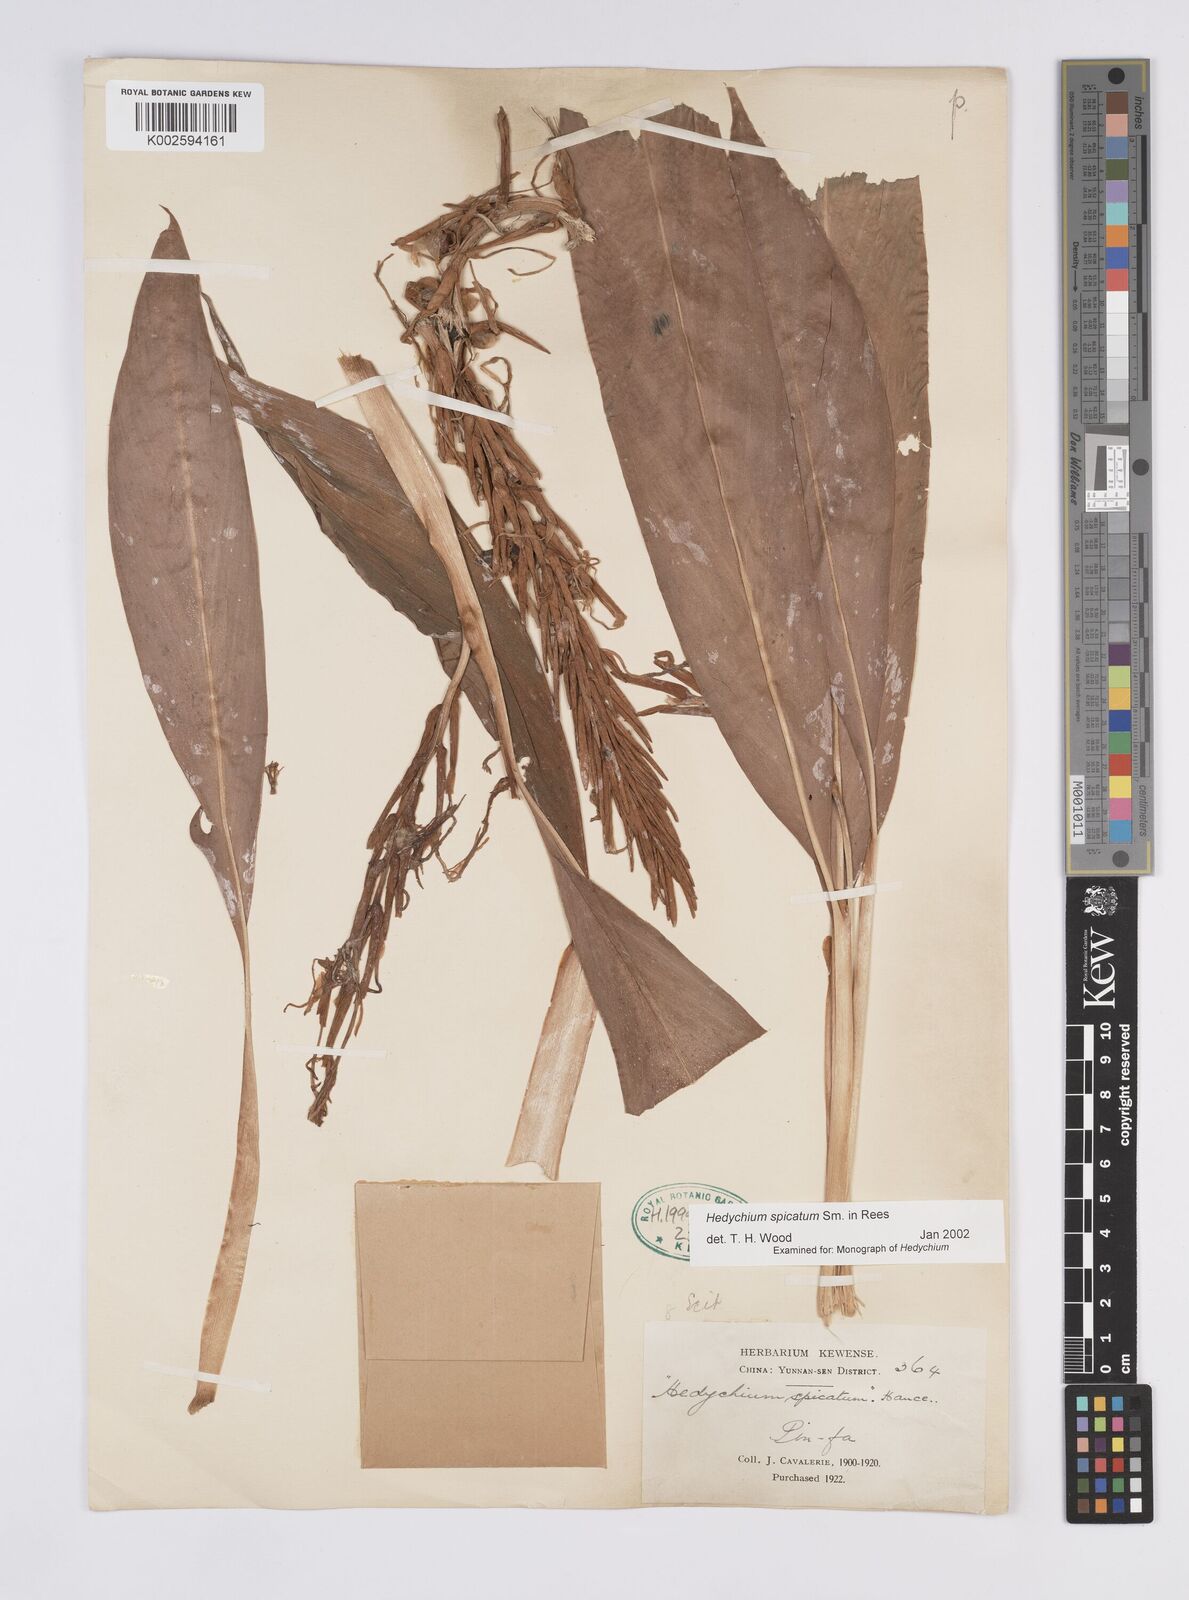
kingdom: Plantae
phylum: Tracheophyta
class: Liliopsida
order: Zingiberales
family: Zingiberaceae
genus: Hedychium
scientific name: Hedychium spicatum
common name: Spiked ginger-lily
